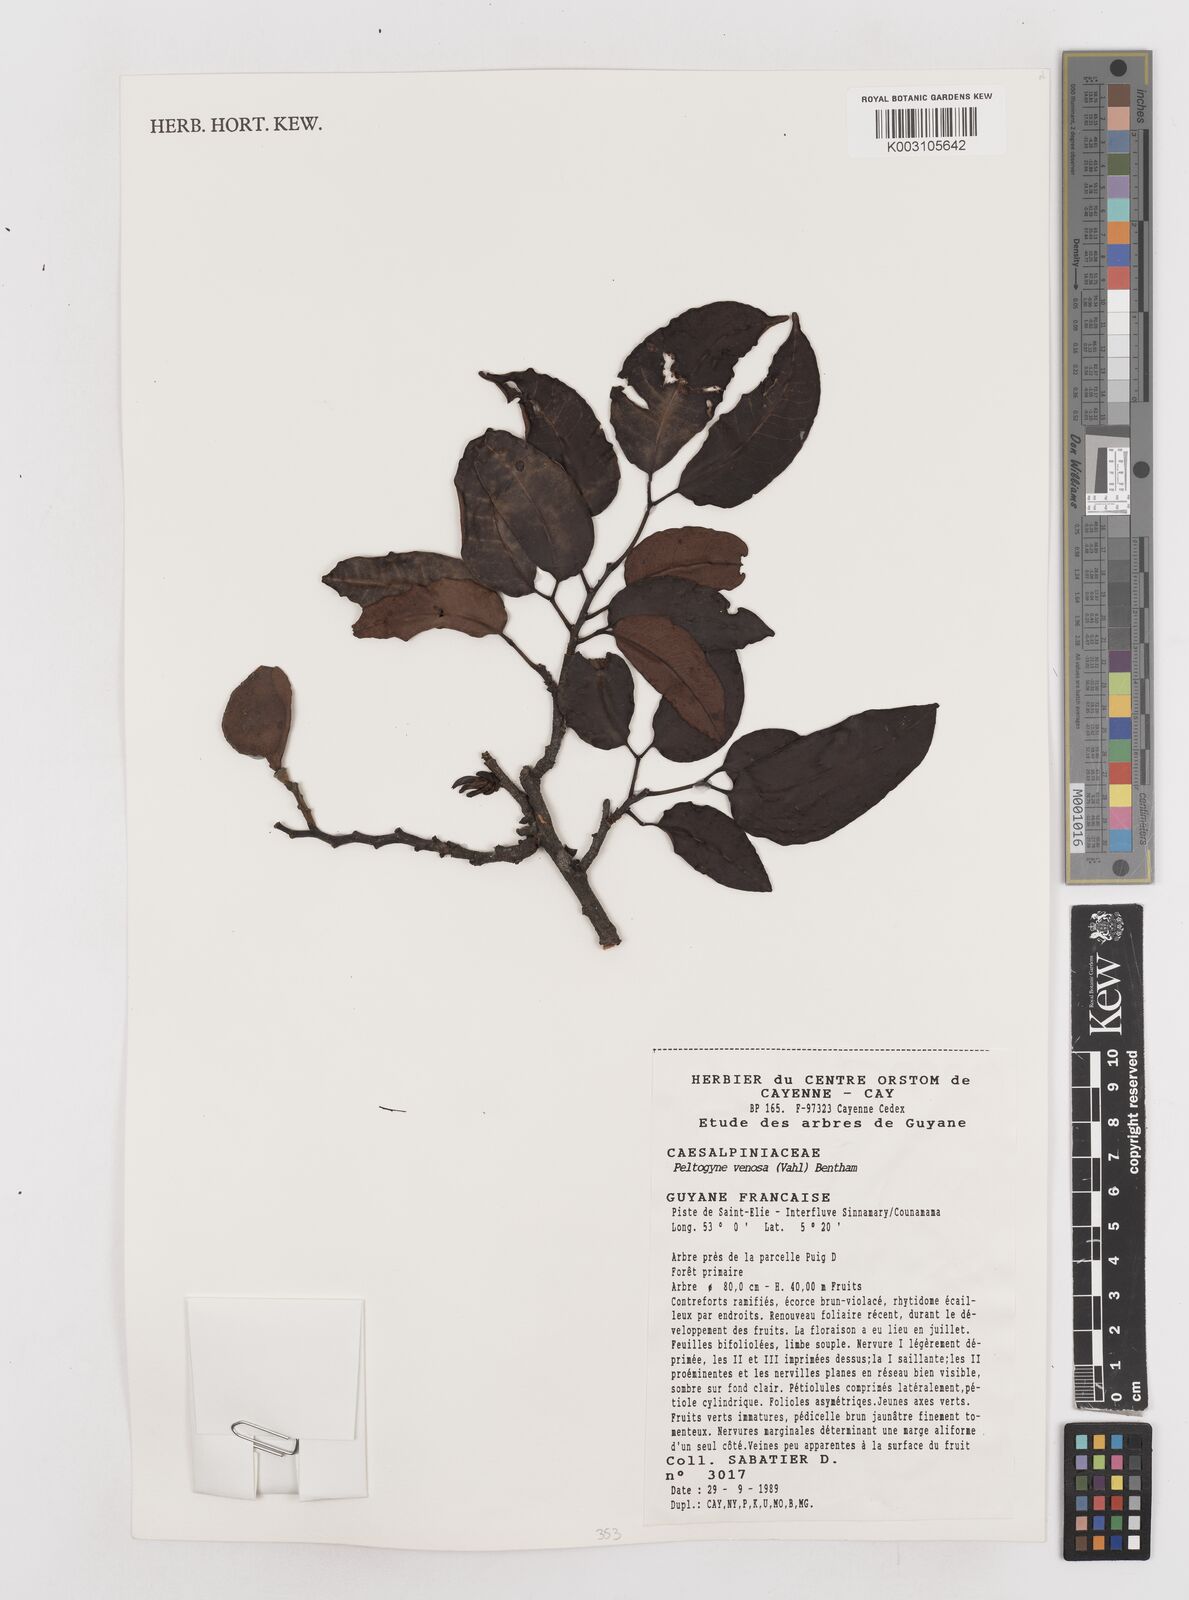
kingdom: Plantae
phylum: Tracheophyta
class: Magnoliopsida
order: Fabales
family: Fabaceae
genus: Peltogyne
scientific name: Peltogyne venosa
